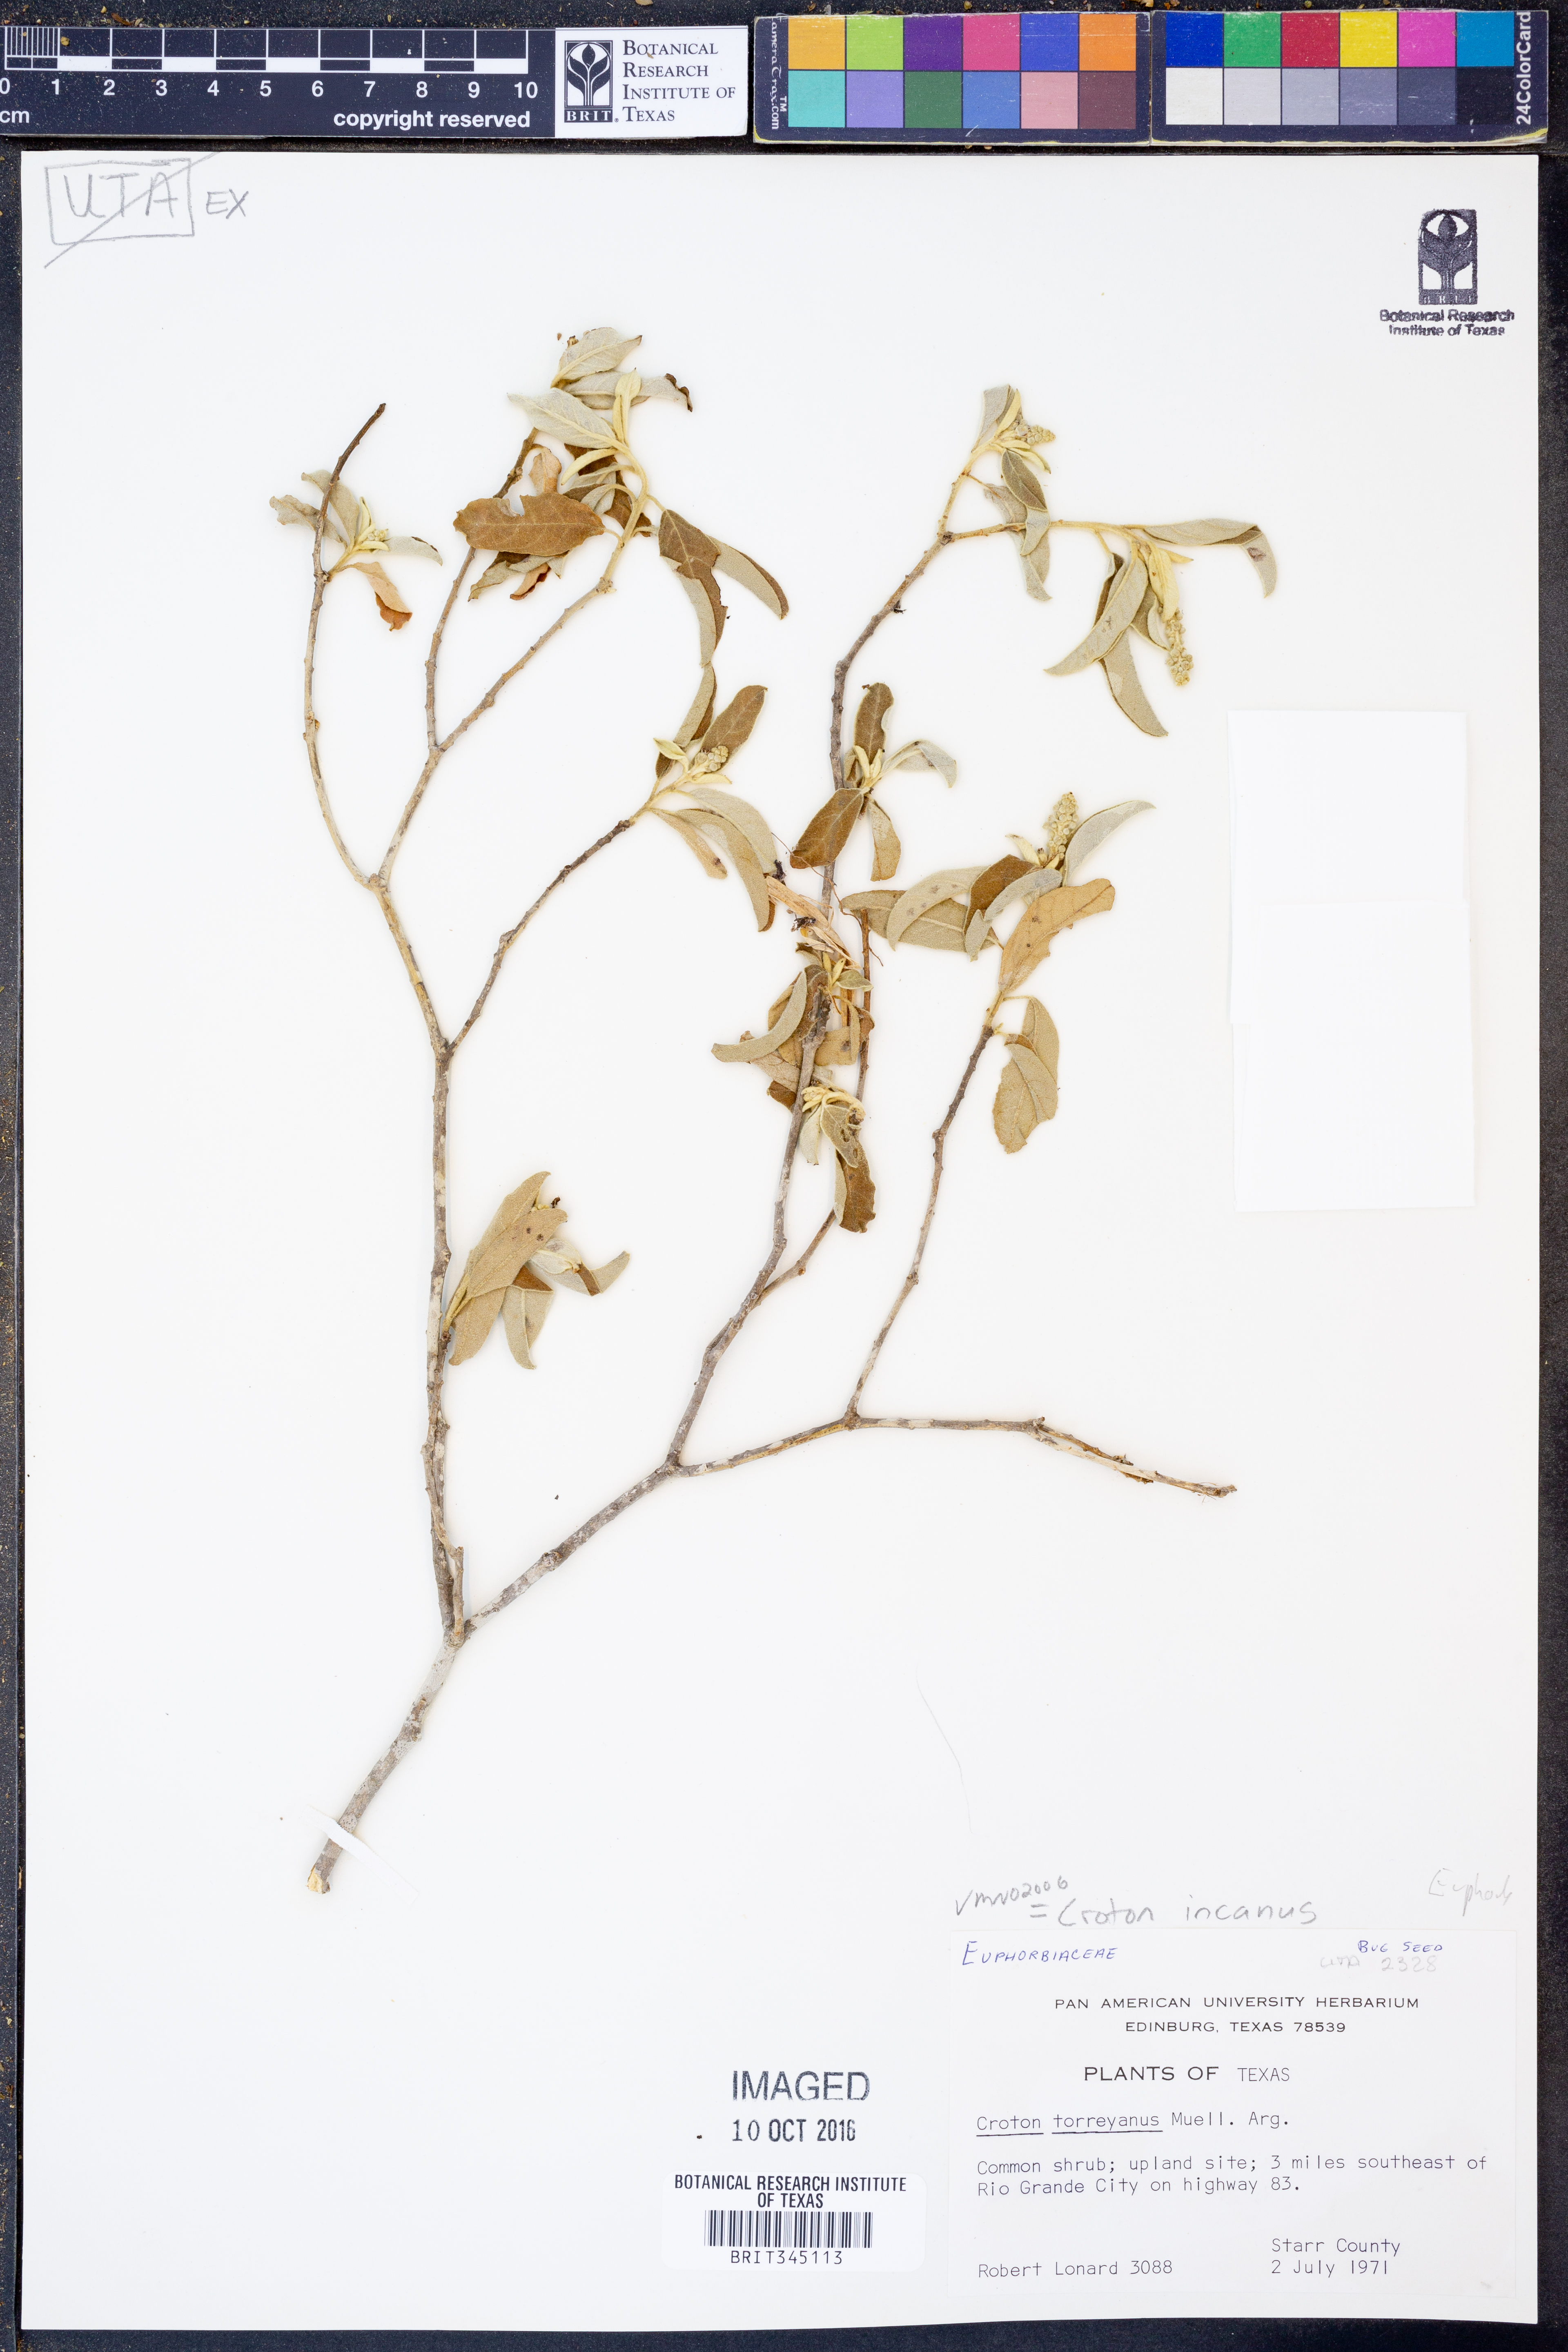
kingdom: Plantae
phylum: Tracheophyta
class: Magnoliopsida
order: Malpighiales
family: Euphorbiaceae
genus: Croton
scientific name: Croton incanus
